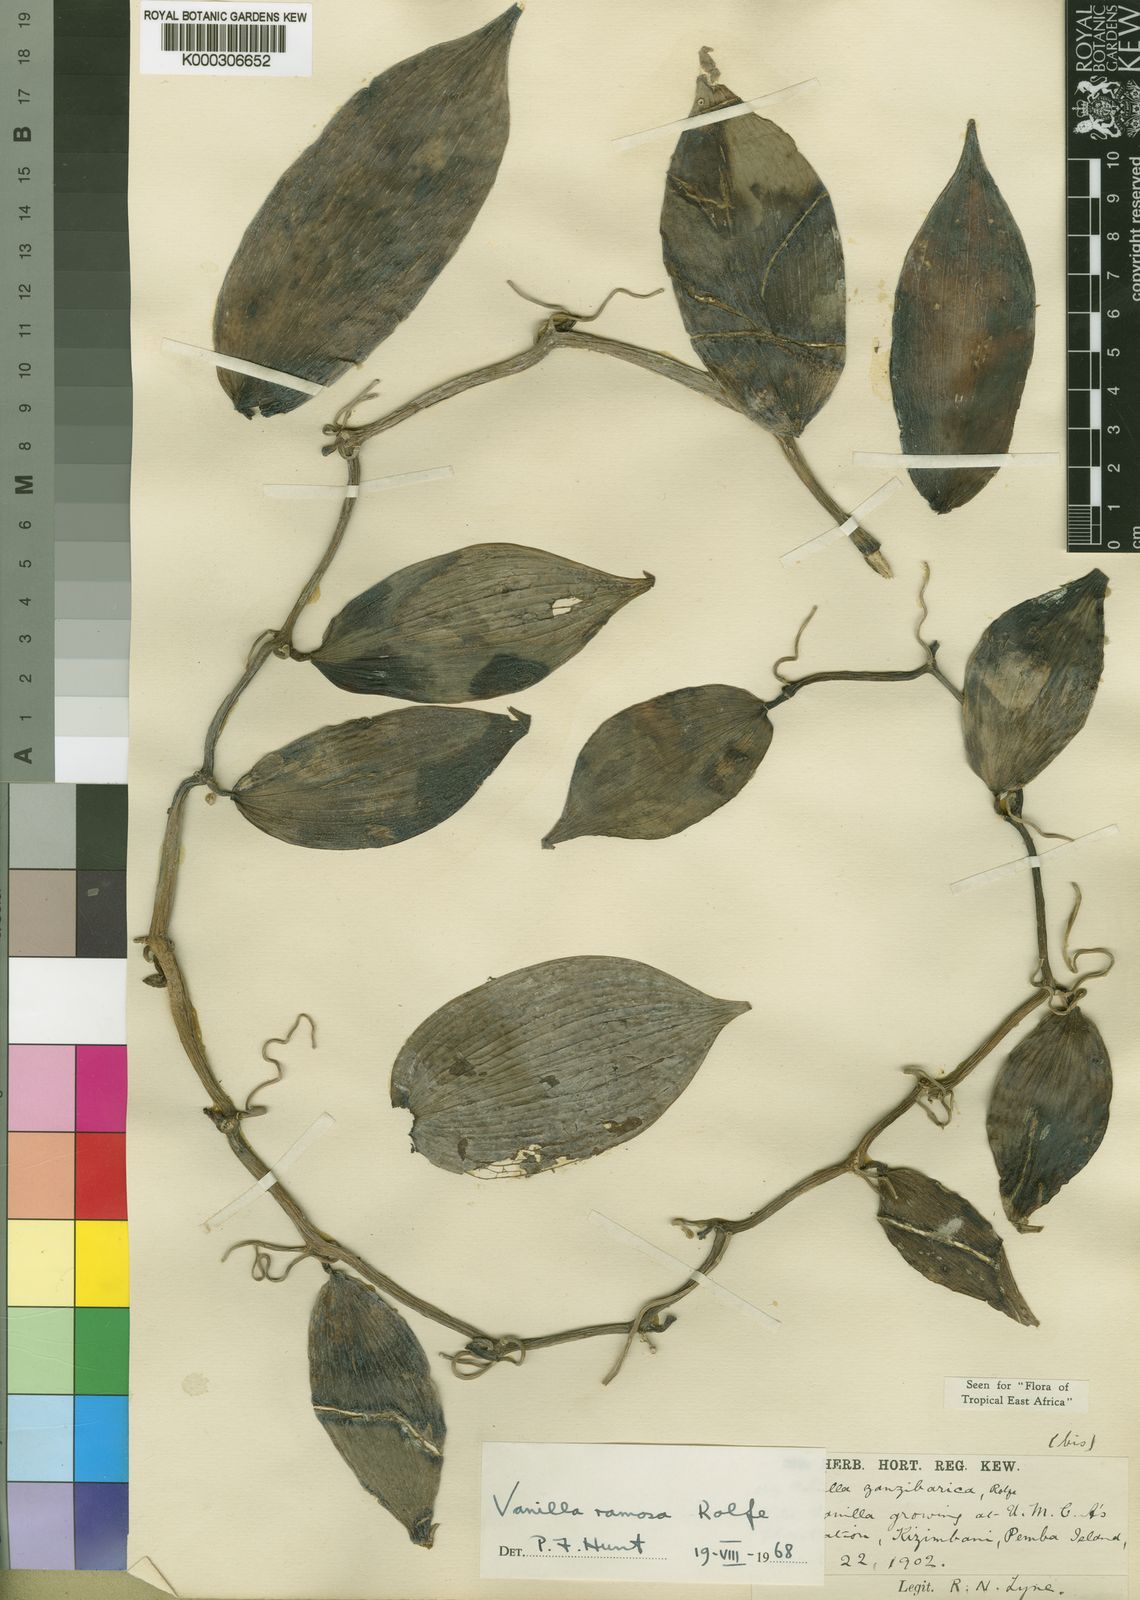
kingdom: Plantae
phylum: Tracheophyta
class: Liliopsida
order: Asparagales
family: Orchidaceae
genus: Vanilla
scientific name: Vanilla ramosa
